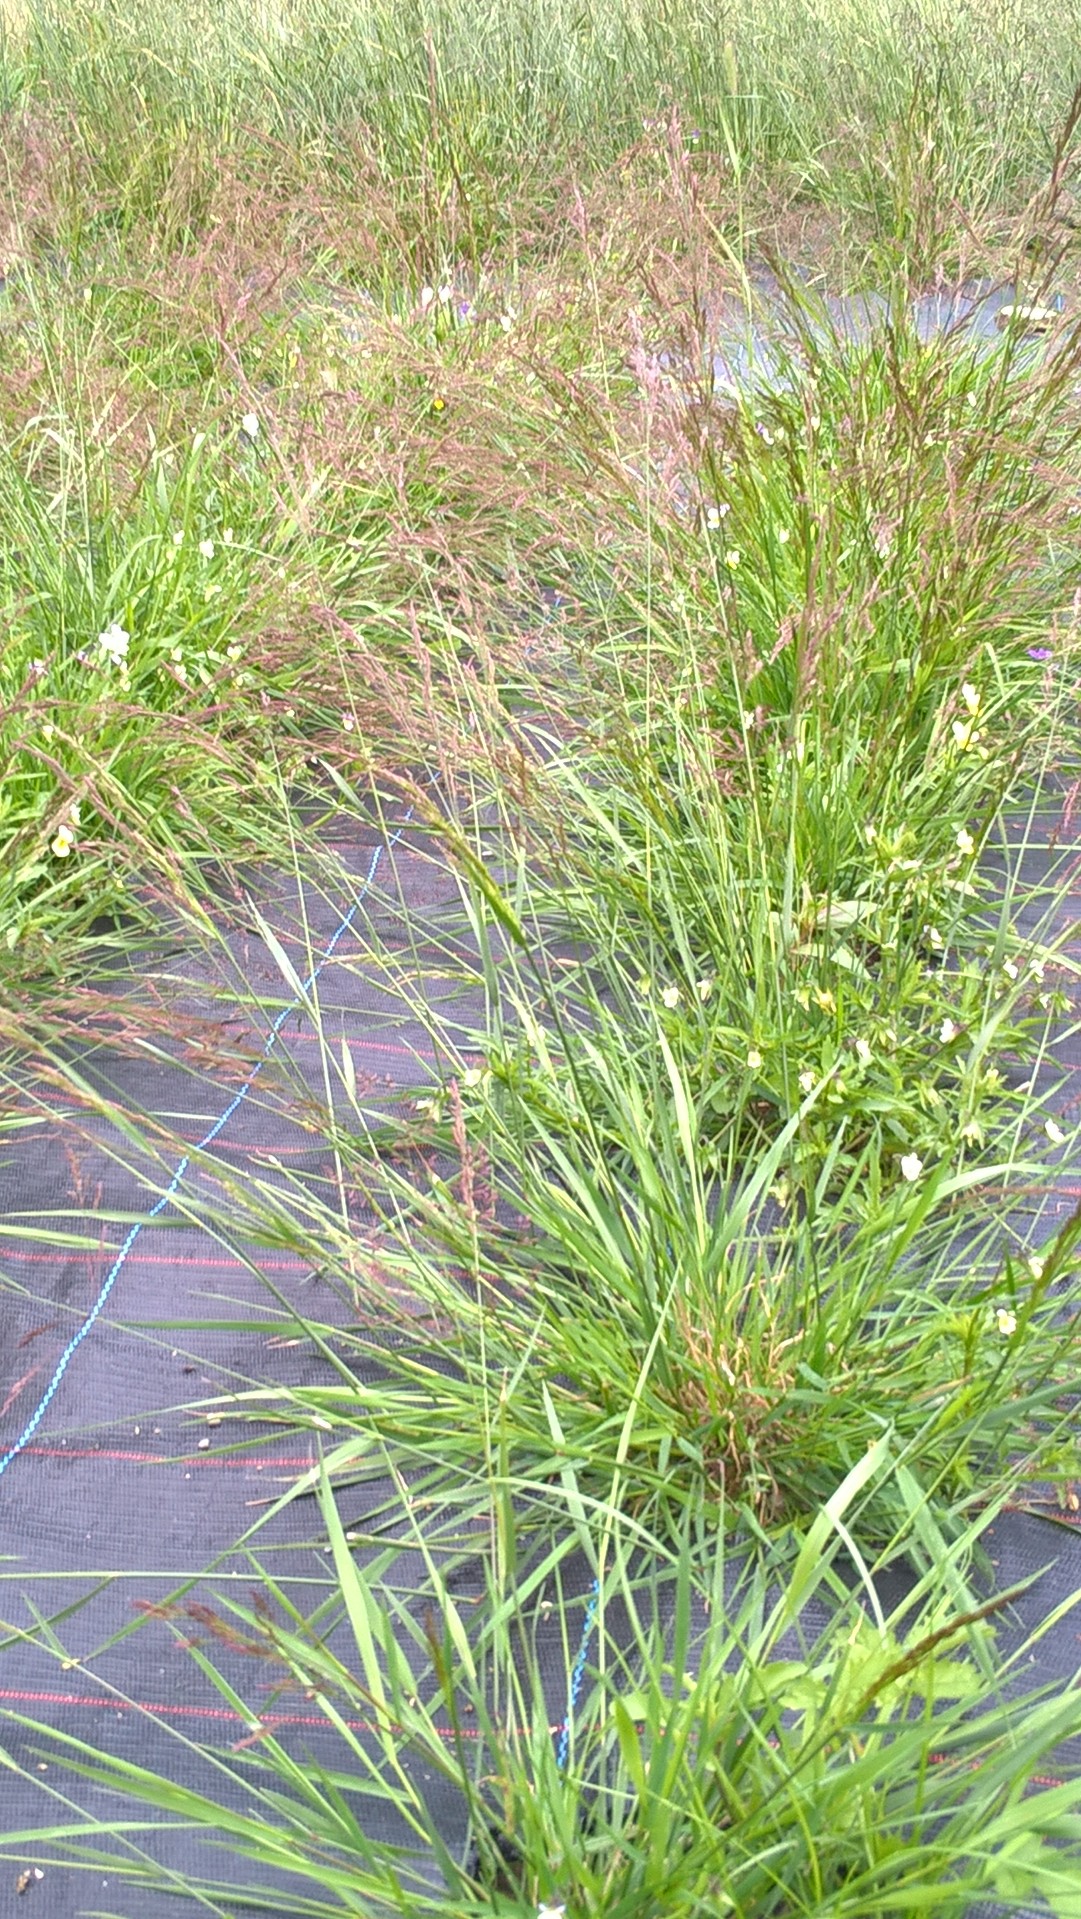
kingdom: Plantae
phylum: Tracheophyta
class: Liliopsida
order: Poales
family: Poaceae
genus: Agrostis
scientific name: Agrostis capillaris
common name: Colonial bentgrass
